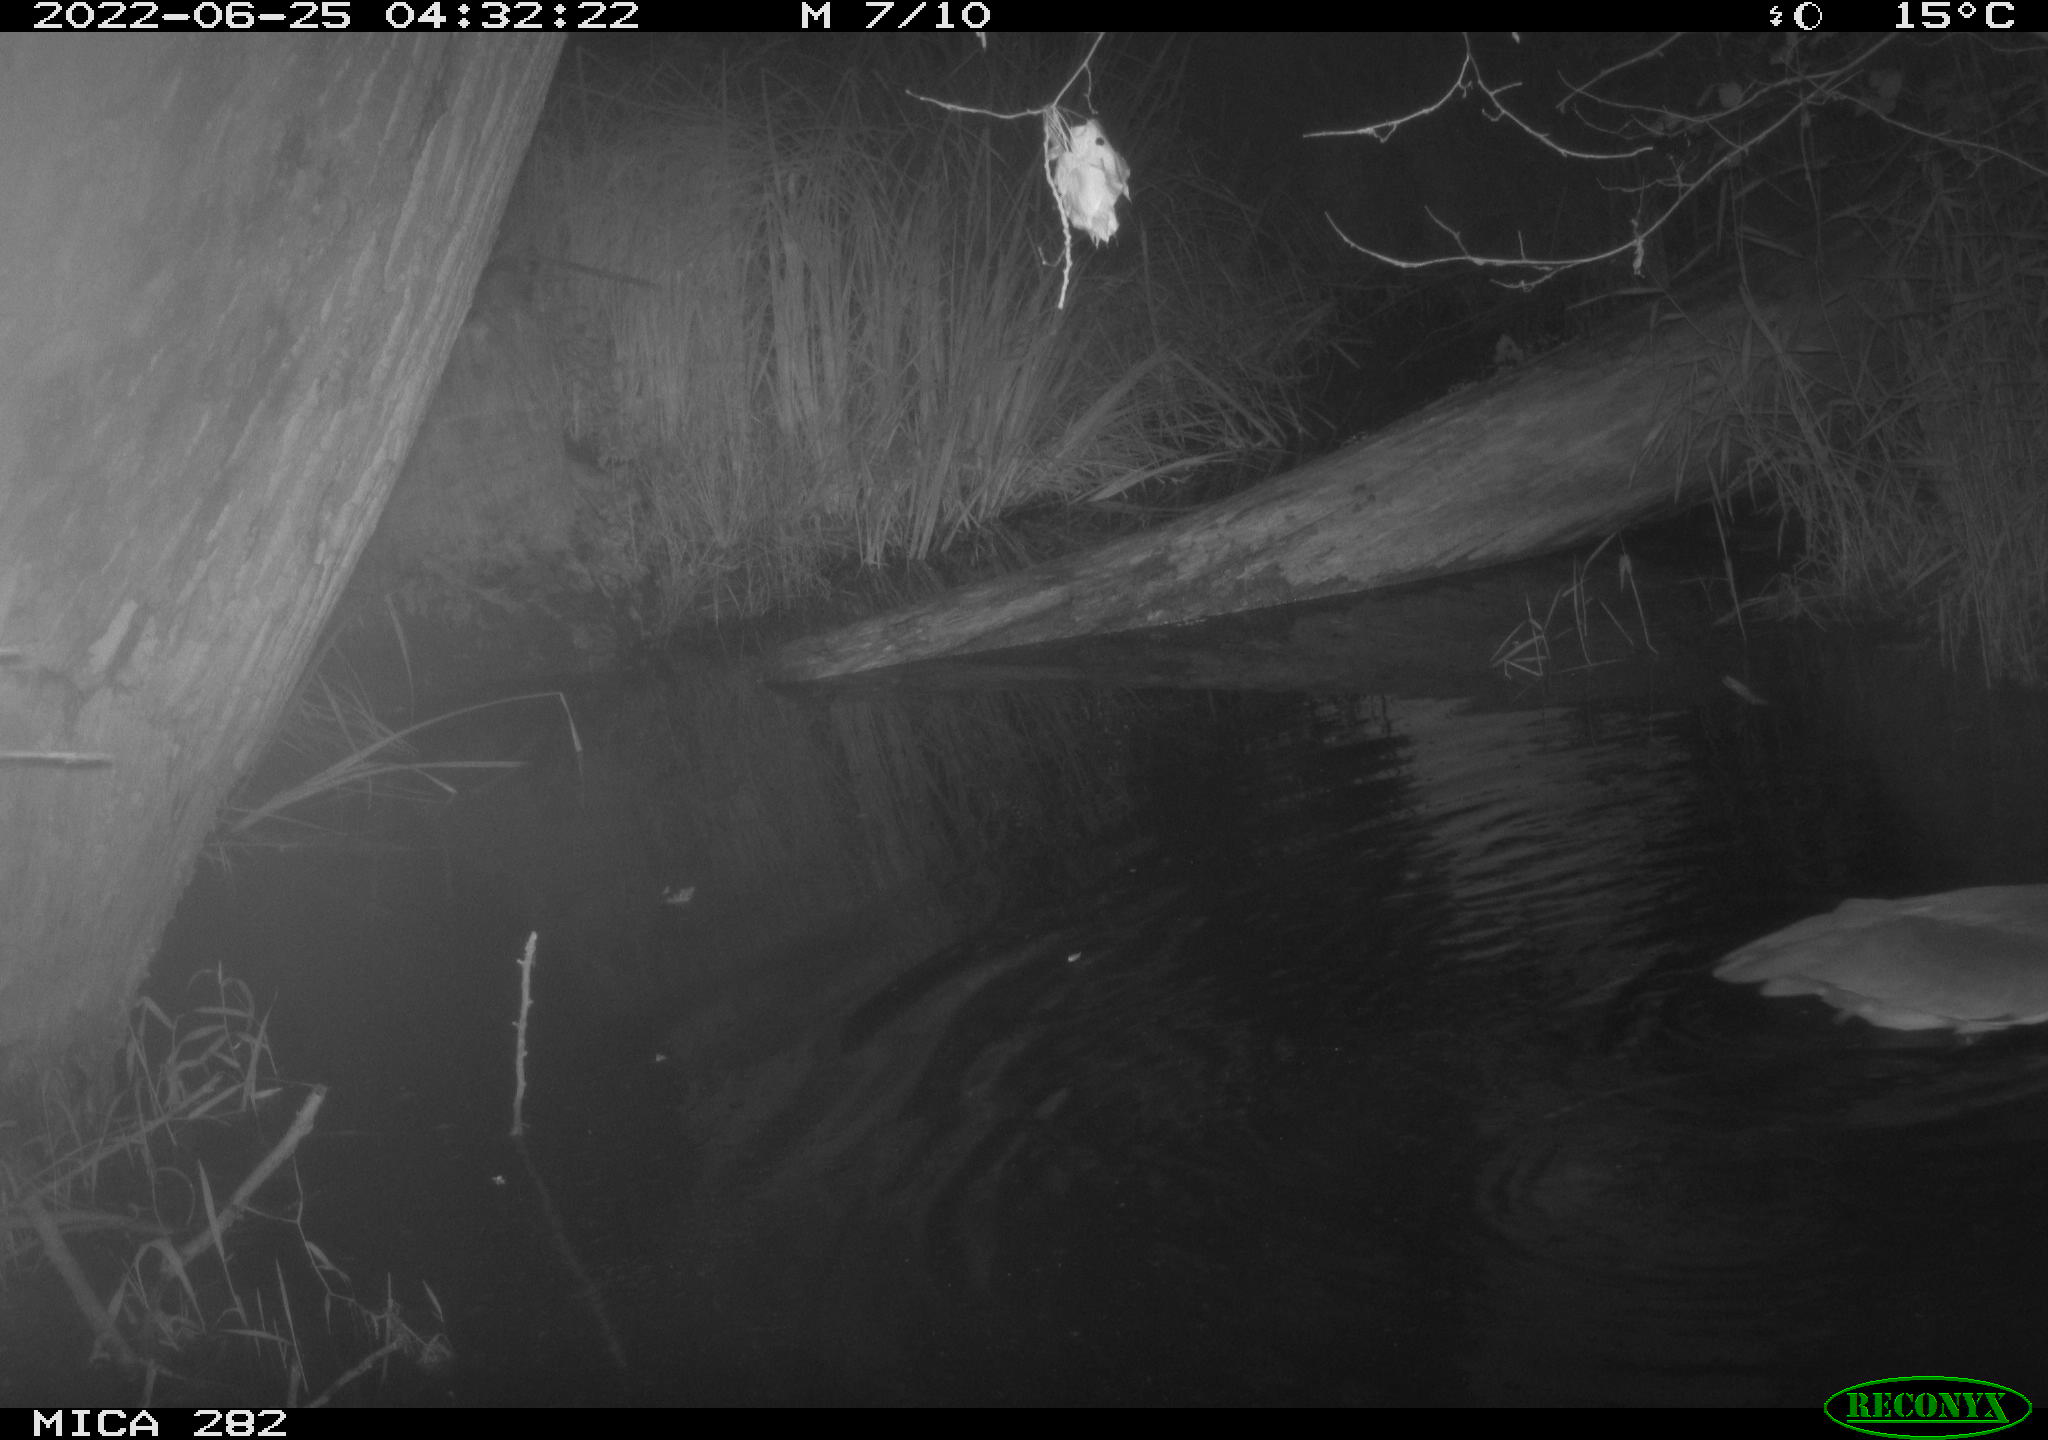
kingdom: Animalia
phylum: Chordata
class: Aves
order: Pelecaniformes
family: Ardeidae
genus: Ardea
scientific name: Ardea
